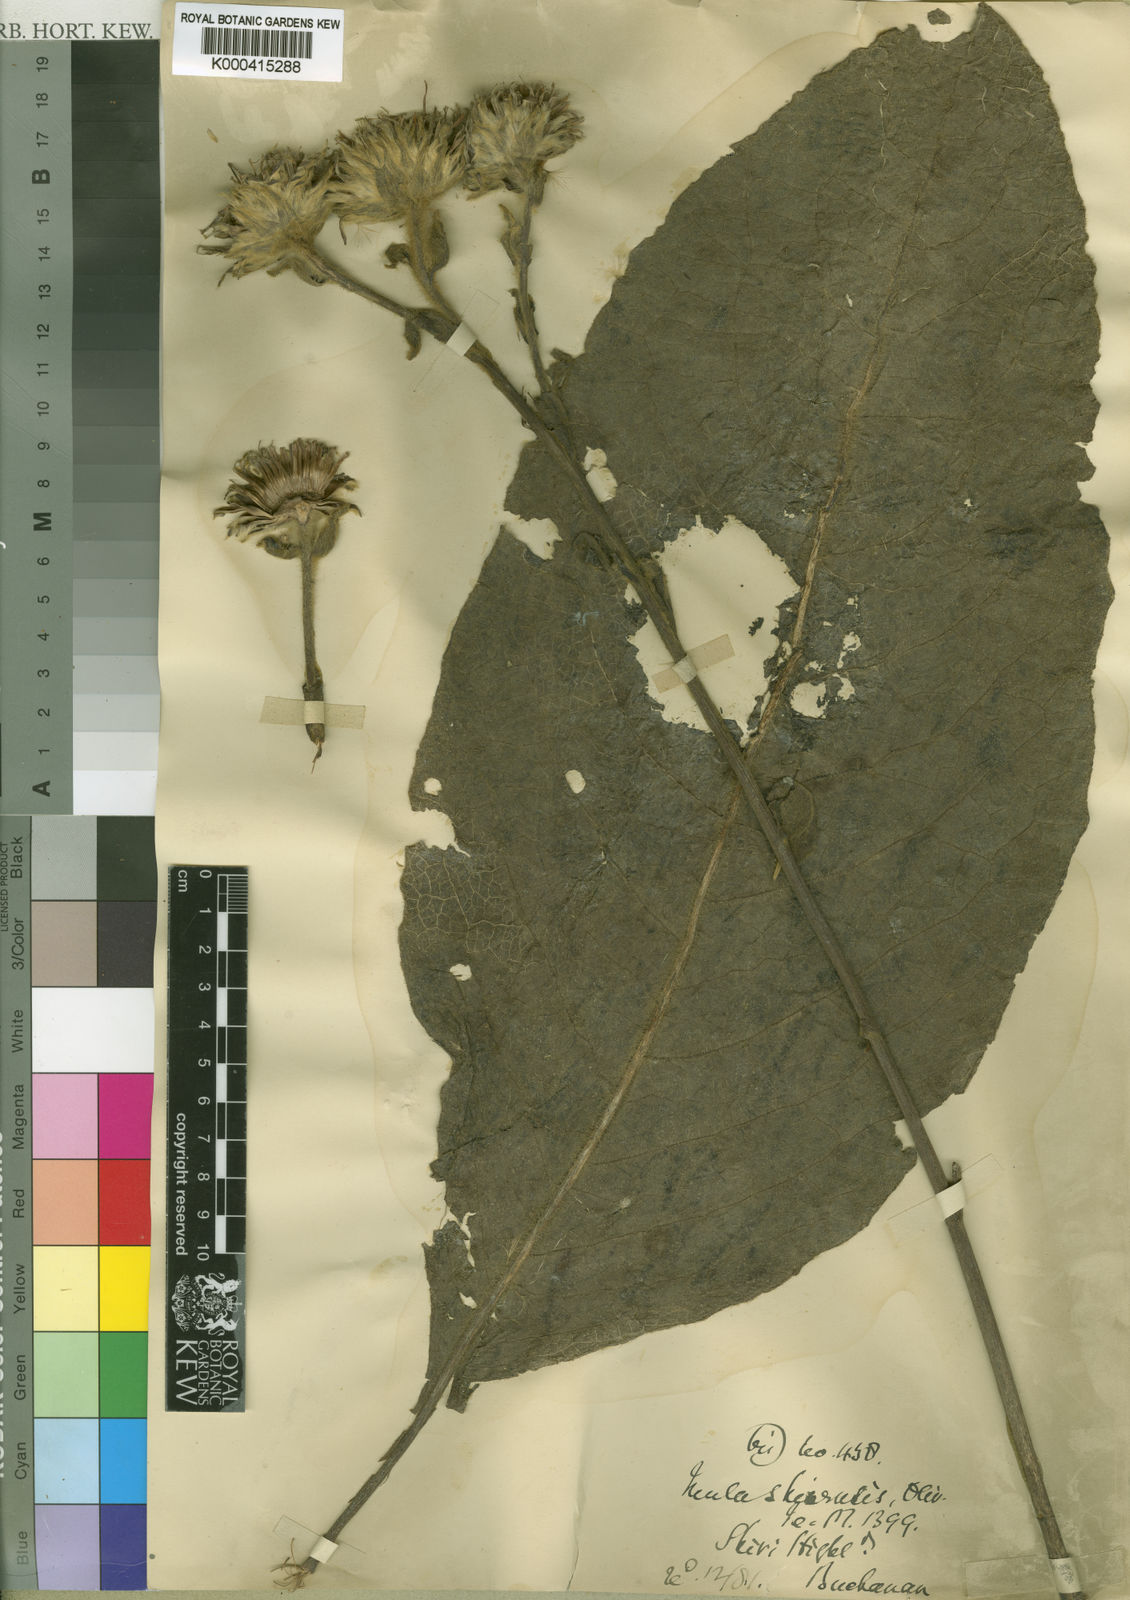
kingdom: Plantae
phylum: Tracheophyta
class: Magnoliopsida
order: Asterales
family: Asteraceae
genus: Monactinocephalus
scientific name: Monactinocephalus shirensis
